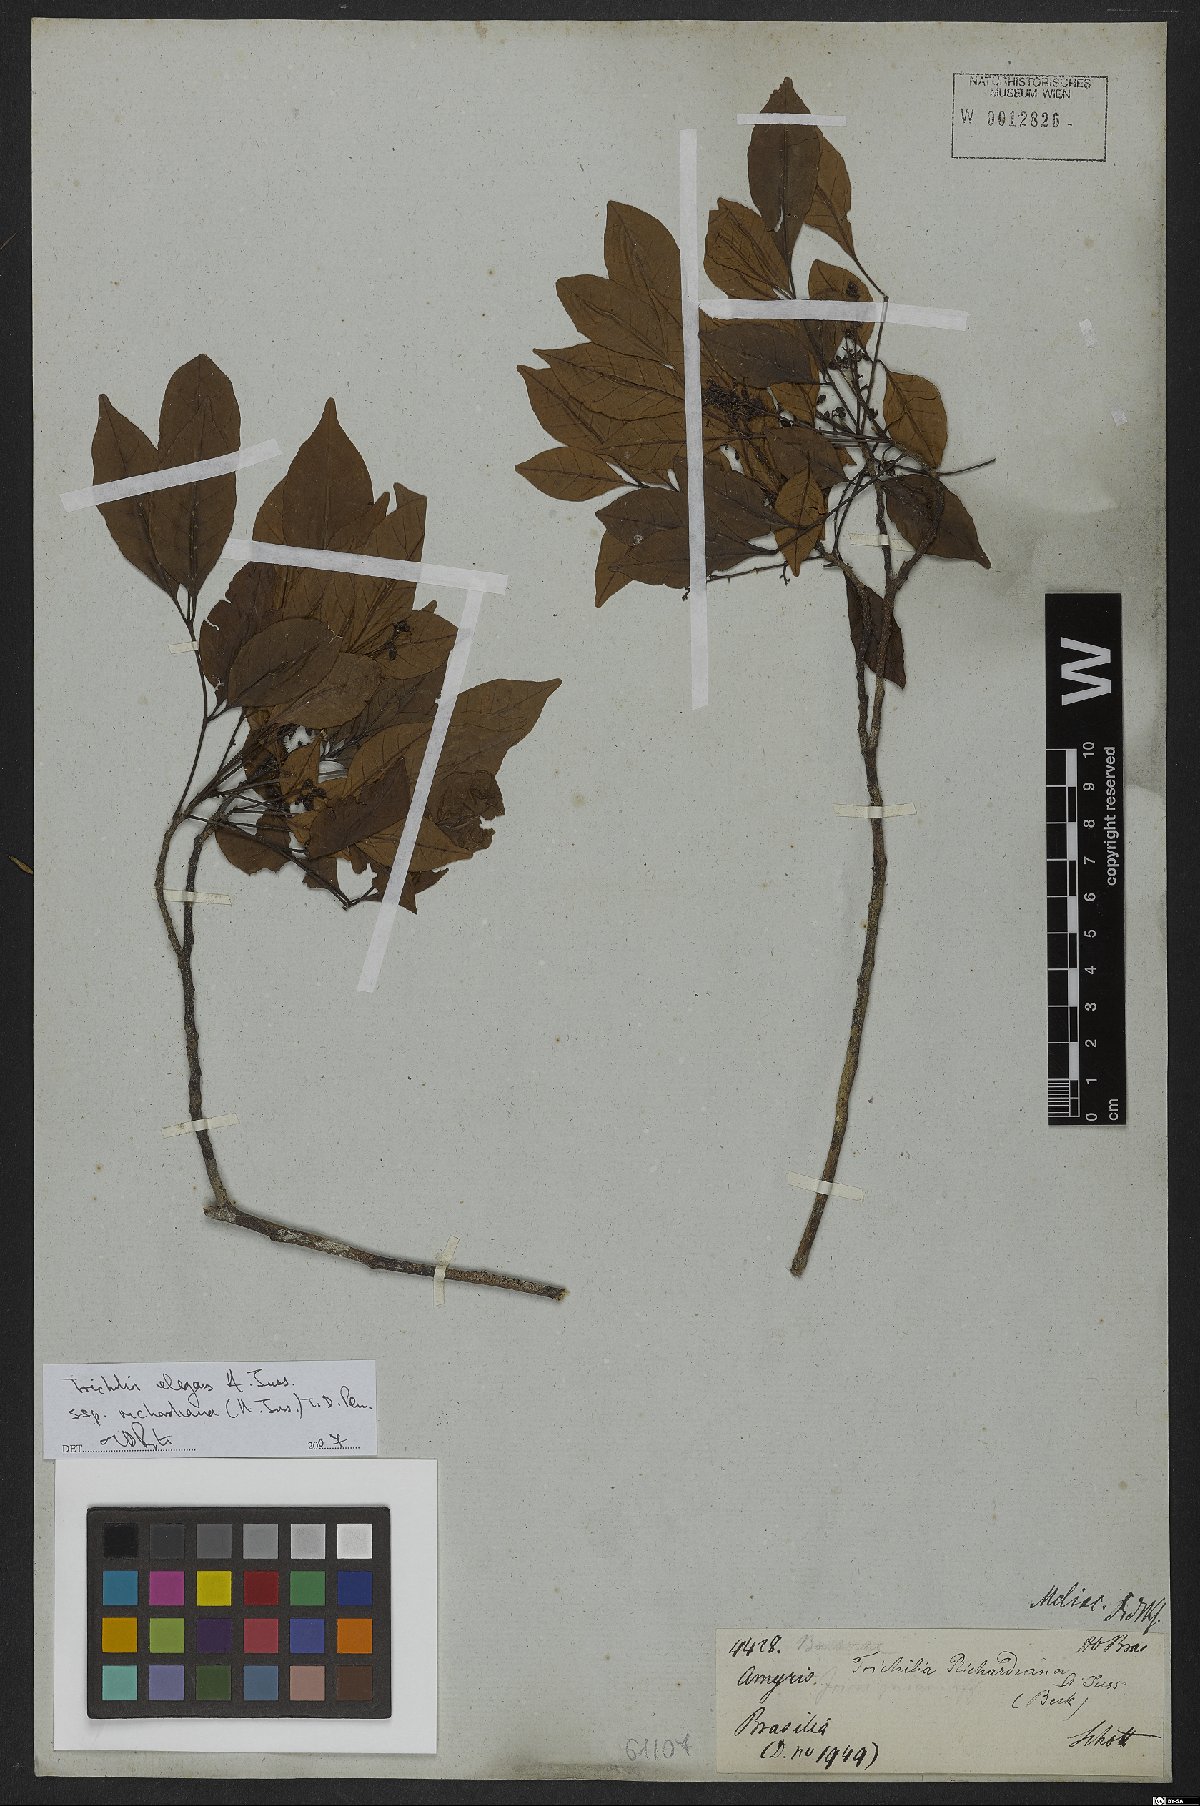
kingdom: Plantae
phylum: Tracheophyta
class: Magnoliopsida
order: Sapindales
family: Meliaceae
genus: Trichilia
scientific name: Trichilia elegans
